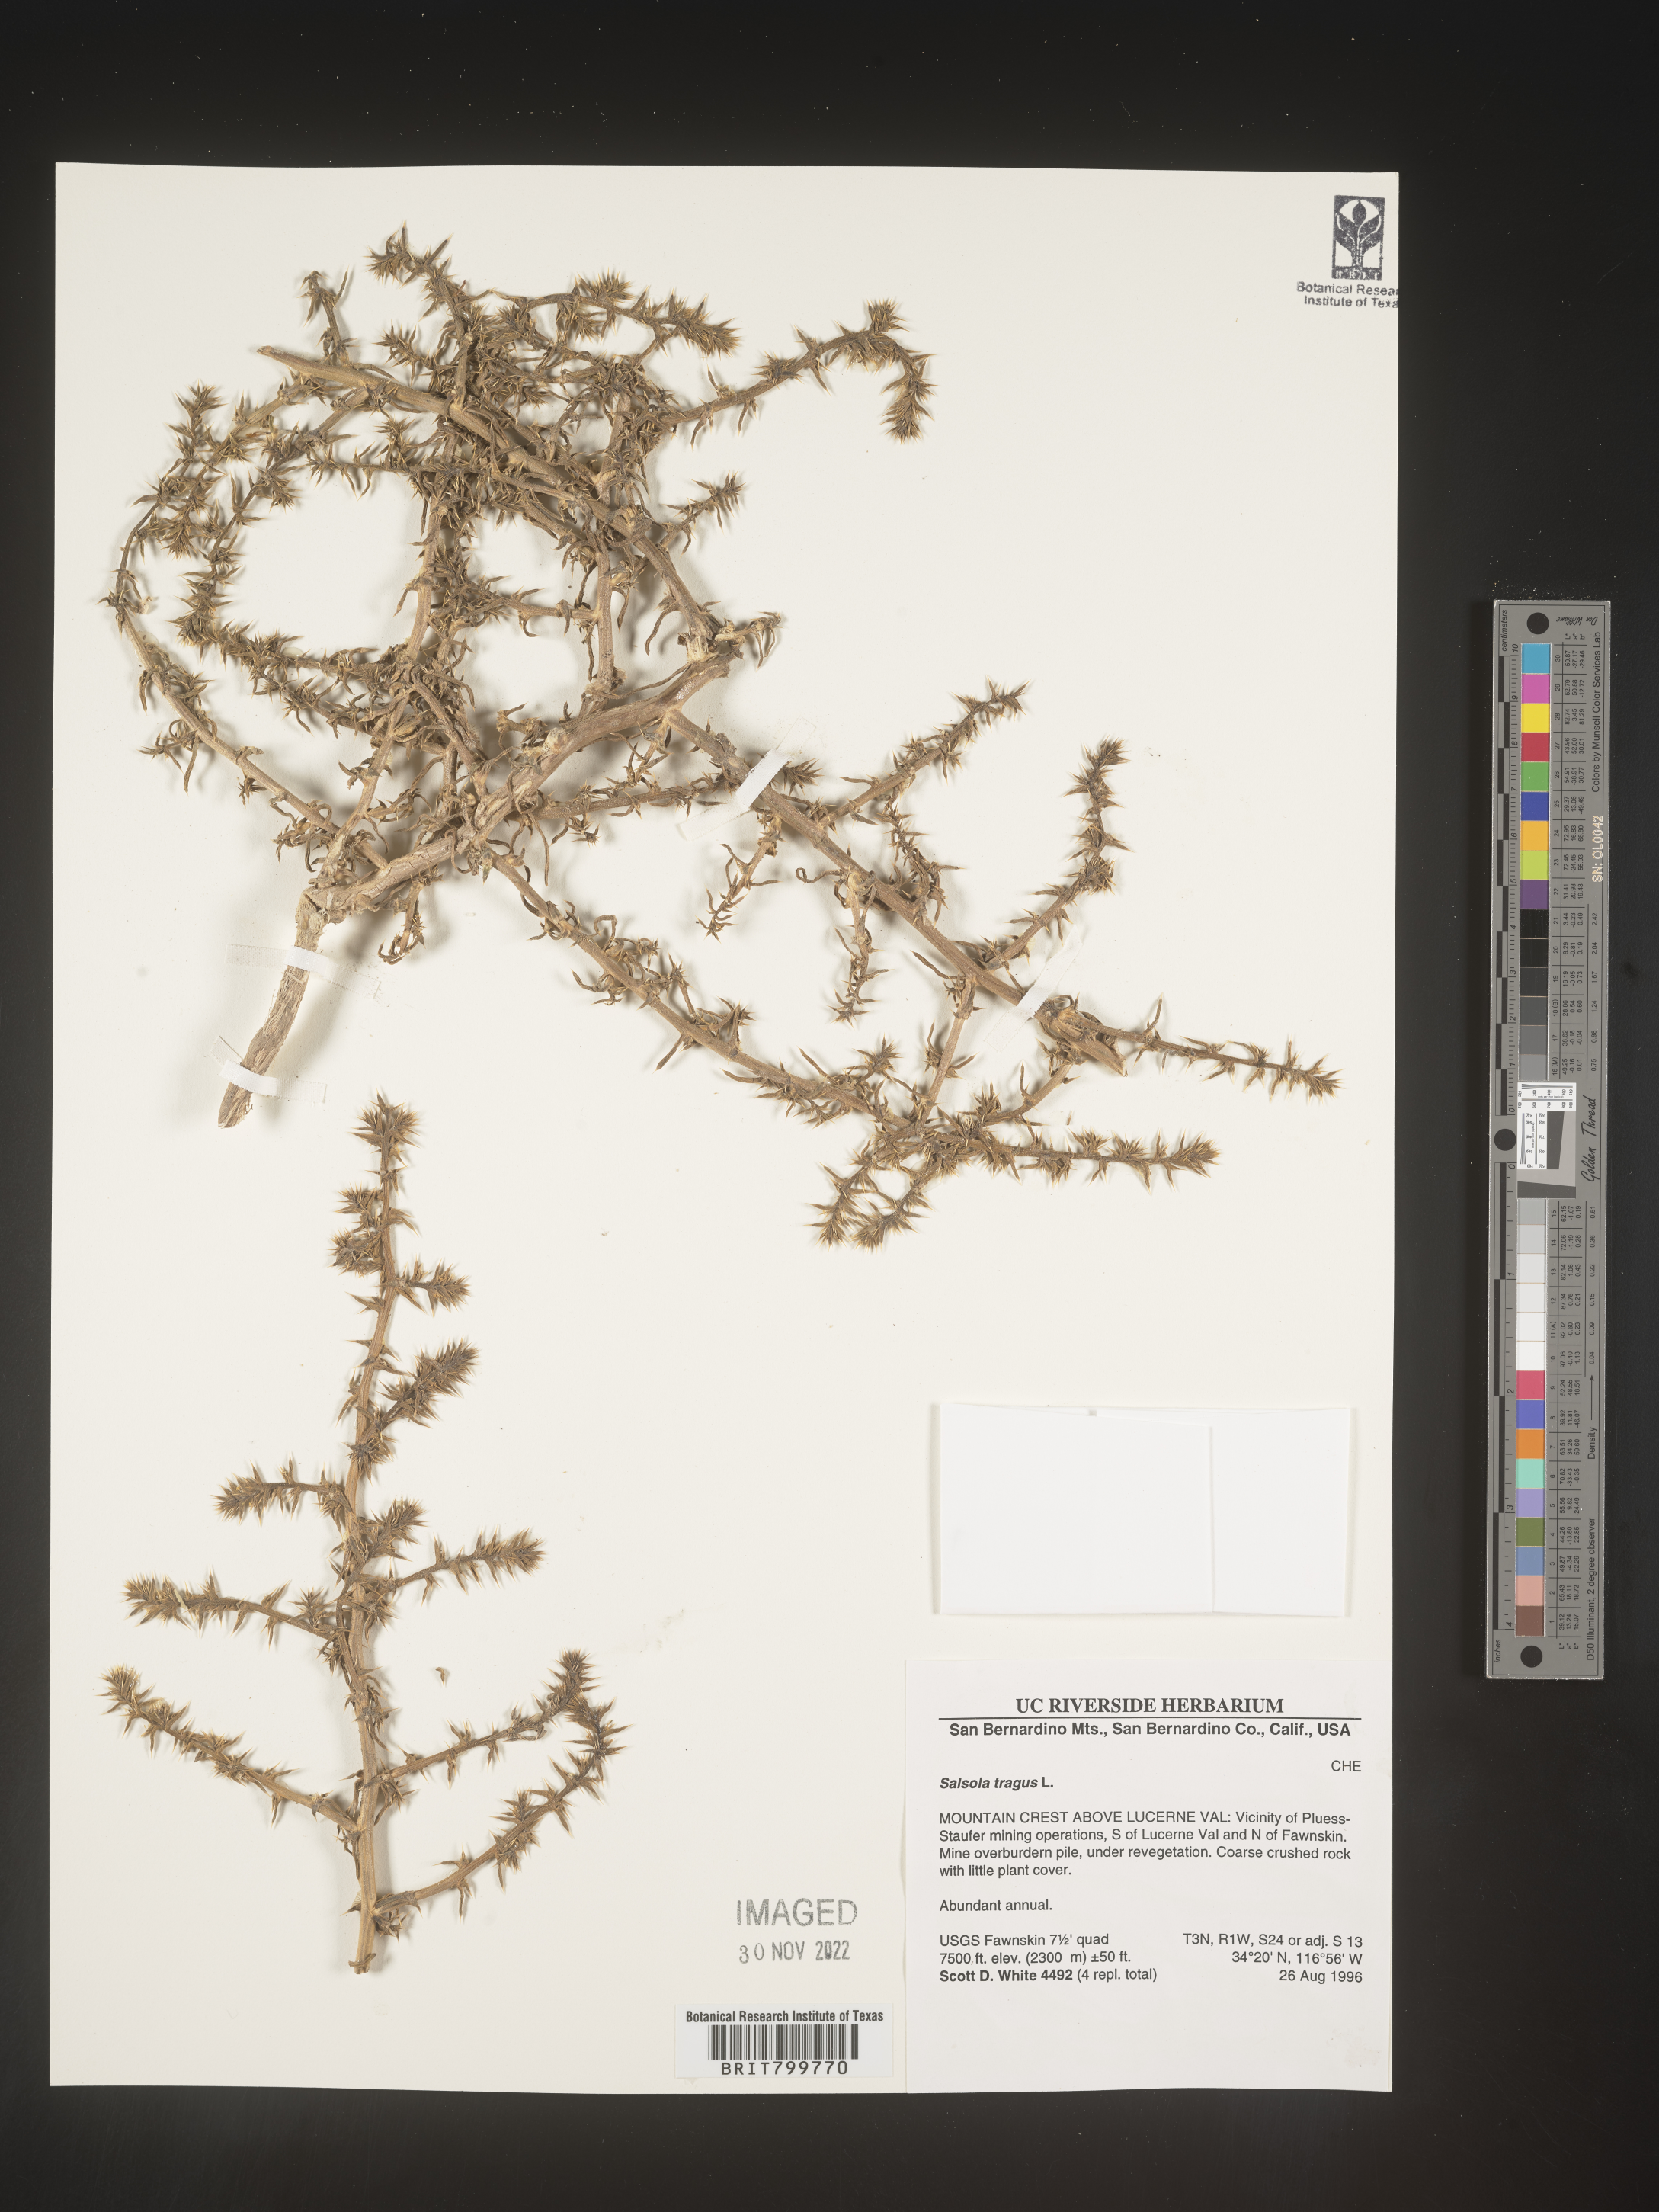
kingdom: Plantae
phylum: Tracheophyta
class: Magnoliopsida
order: Caryophyllales
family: Amaranthaceae
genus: Salsola
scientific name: Salsola tragus
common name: Prickly russian thistle
